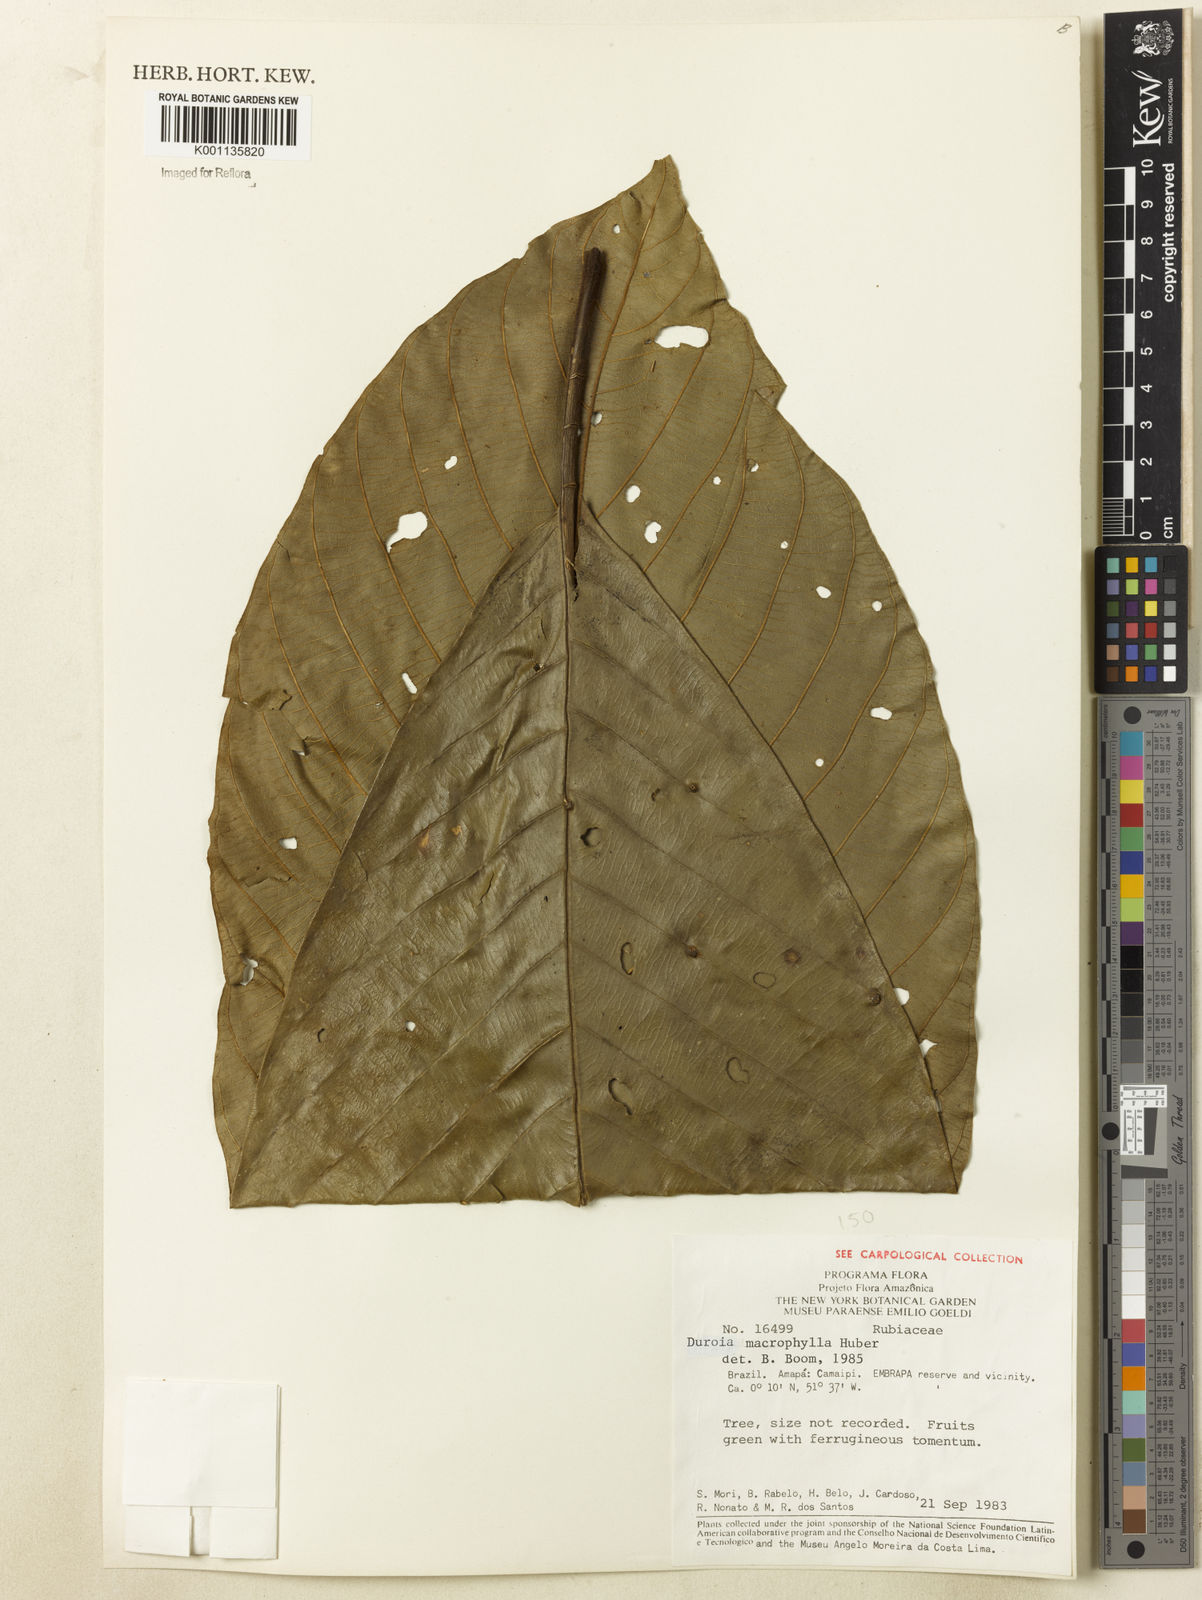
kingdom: Plantae
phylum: Tracheophyta
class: Magnoliopsida
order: Gentianales
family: Rubiaceae
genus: Duroia
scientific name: Duroia macrophylla
